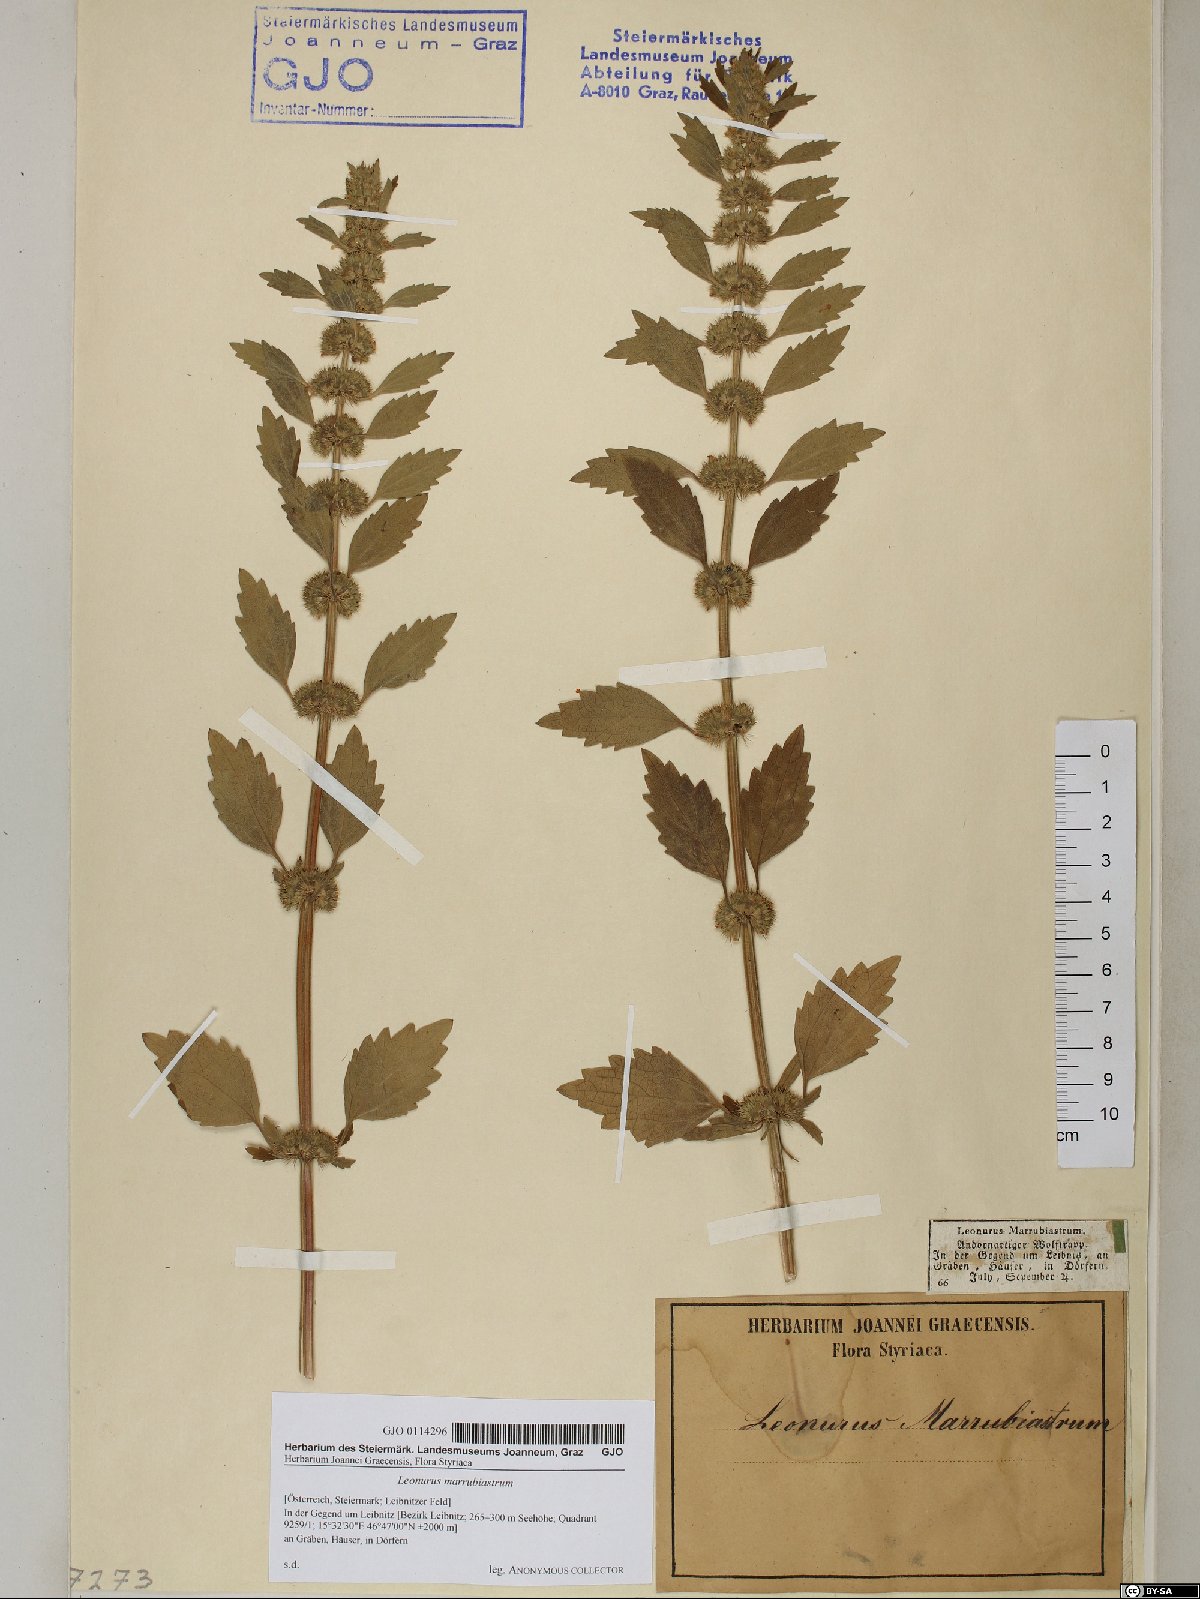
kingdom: Plantae
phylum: Tracheophyta
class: Magnoliopsida
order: Lamiales
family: Lamiaceae
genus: Chaiturus
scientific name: Chaiturus marrubiastrum
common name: Lion's tail
